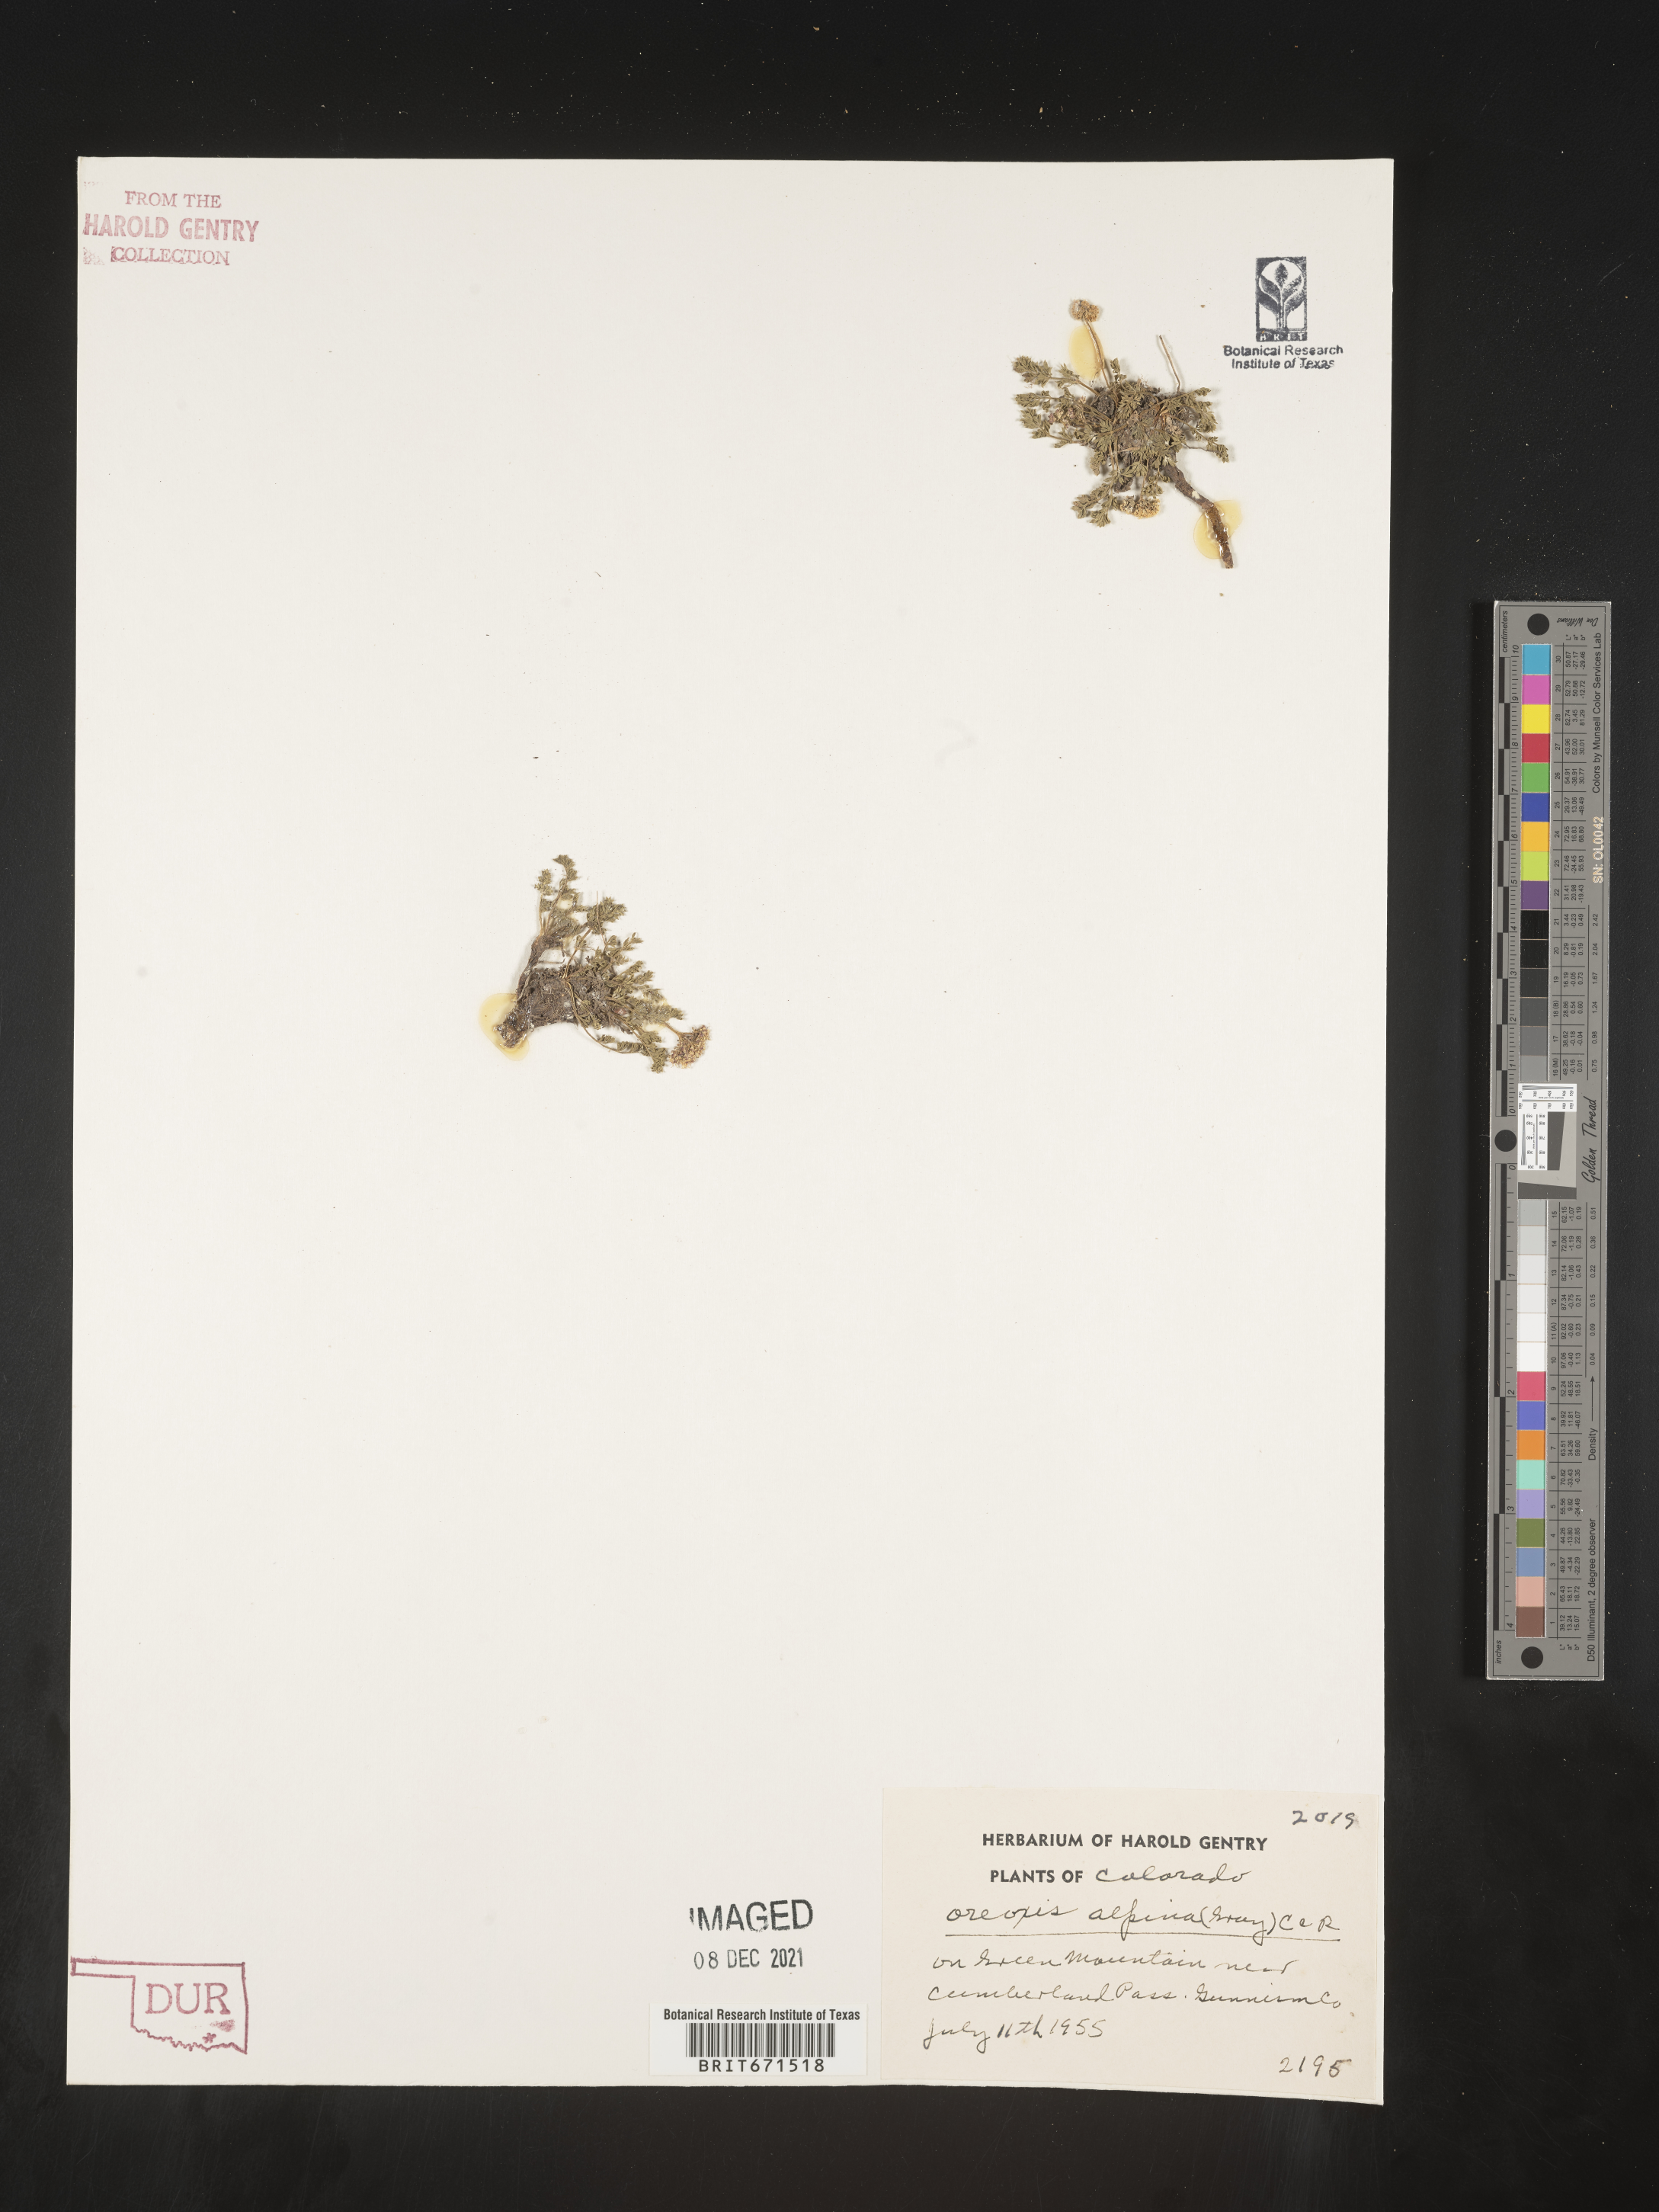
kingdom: Plantae
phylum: Tracheophyta
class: Magnoliopsida
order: Apiales
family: Apiaceae
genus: Oreoxis
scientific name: Oreoxis alpina
